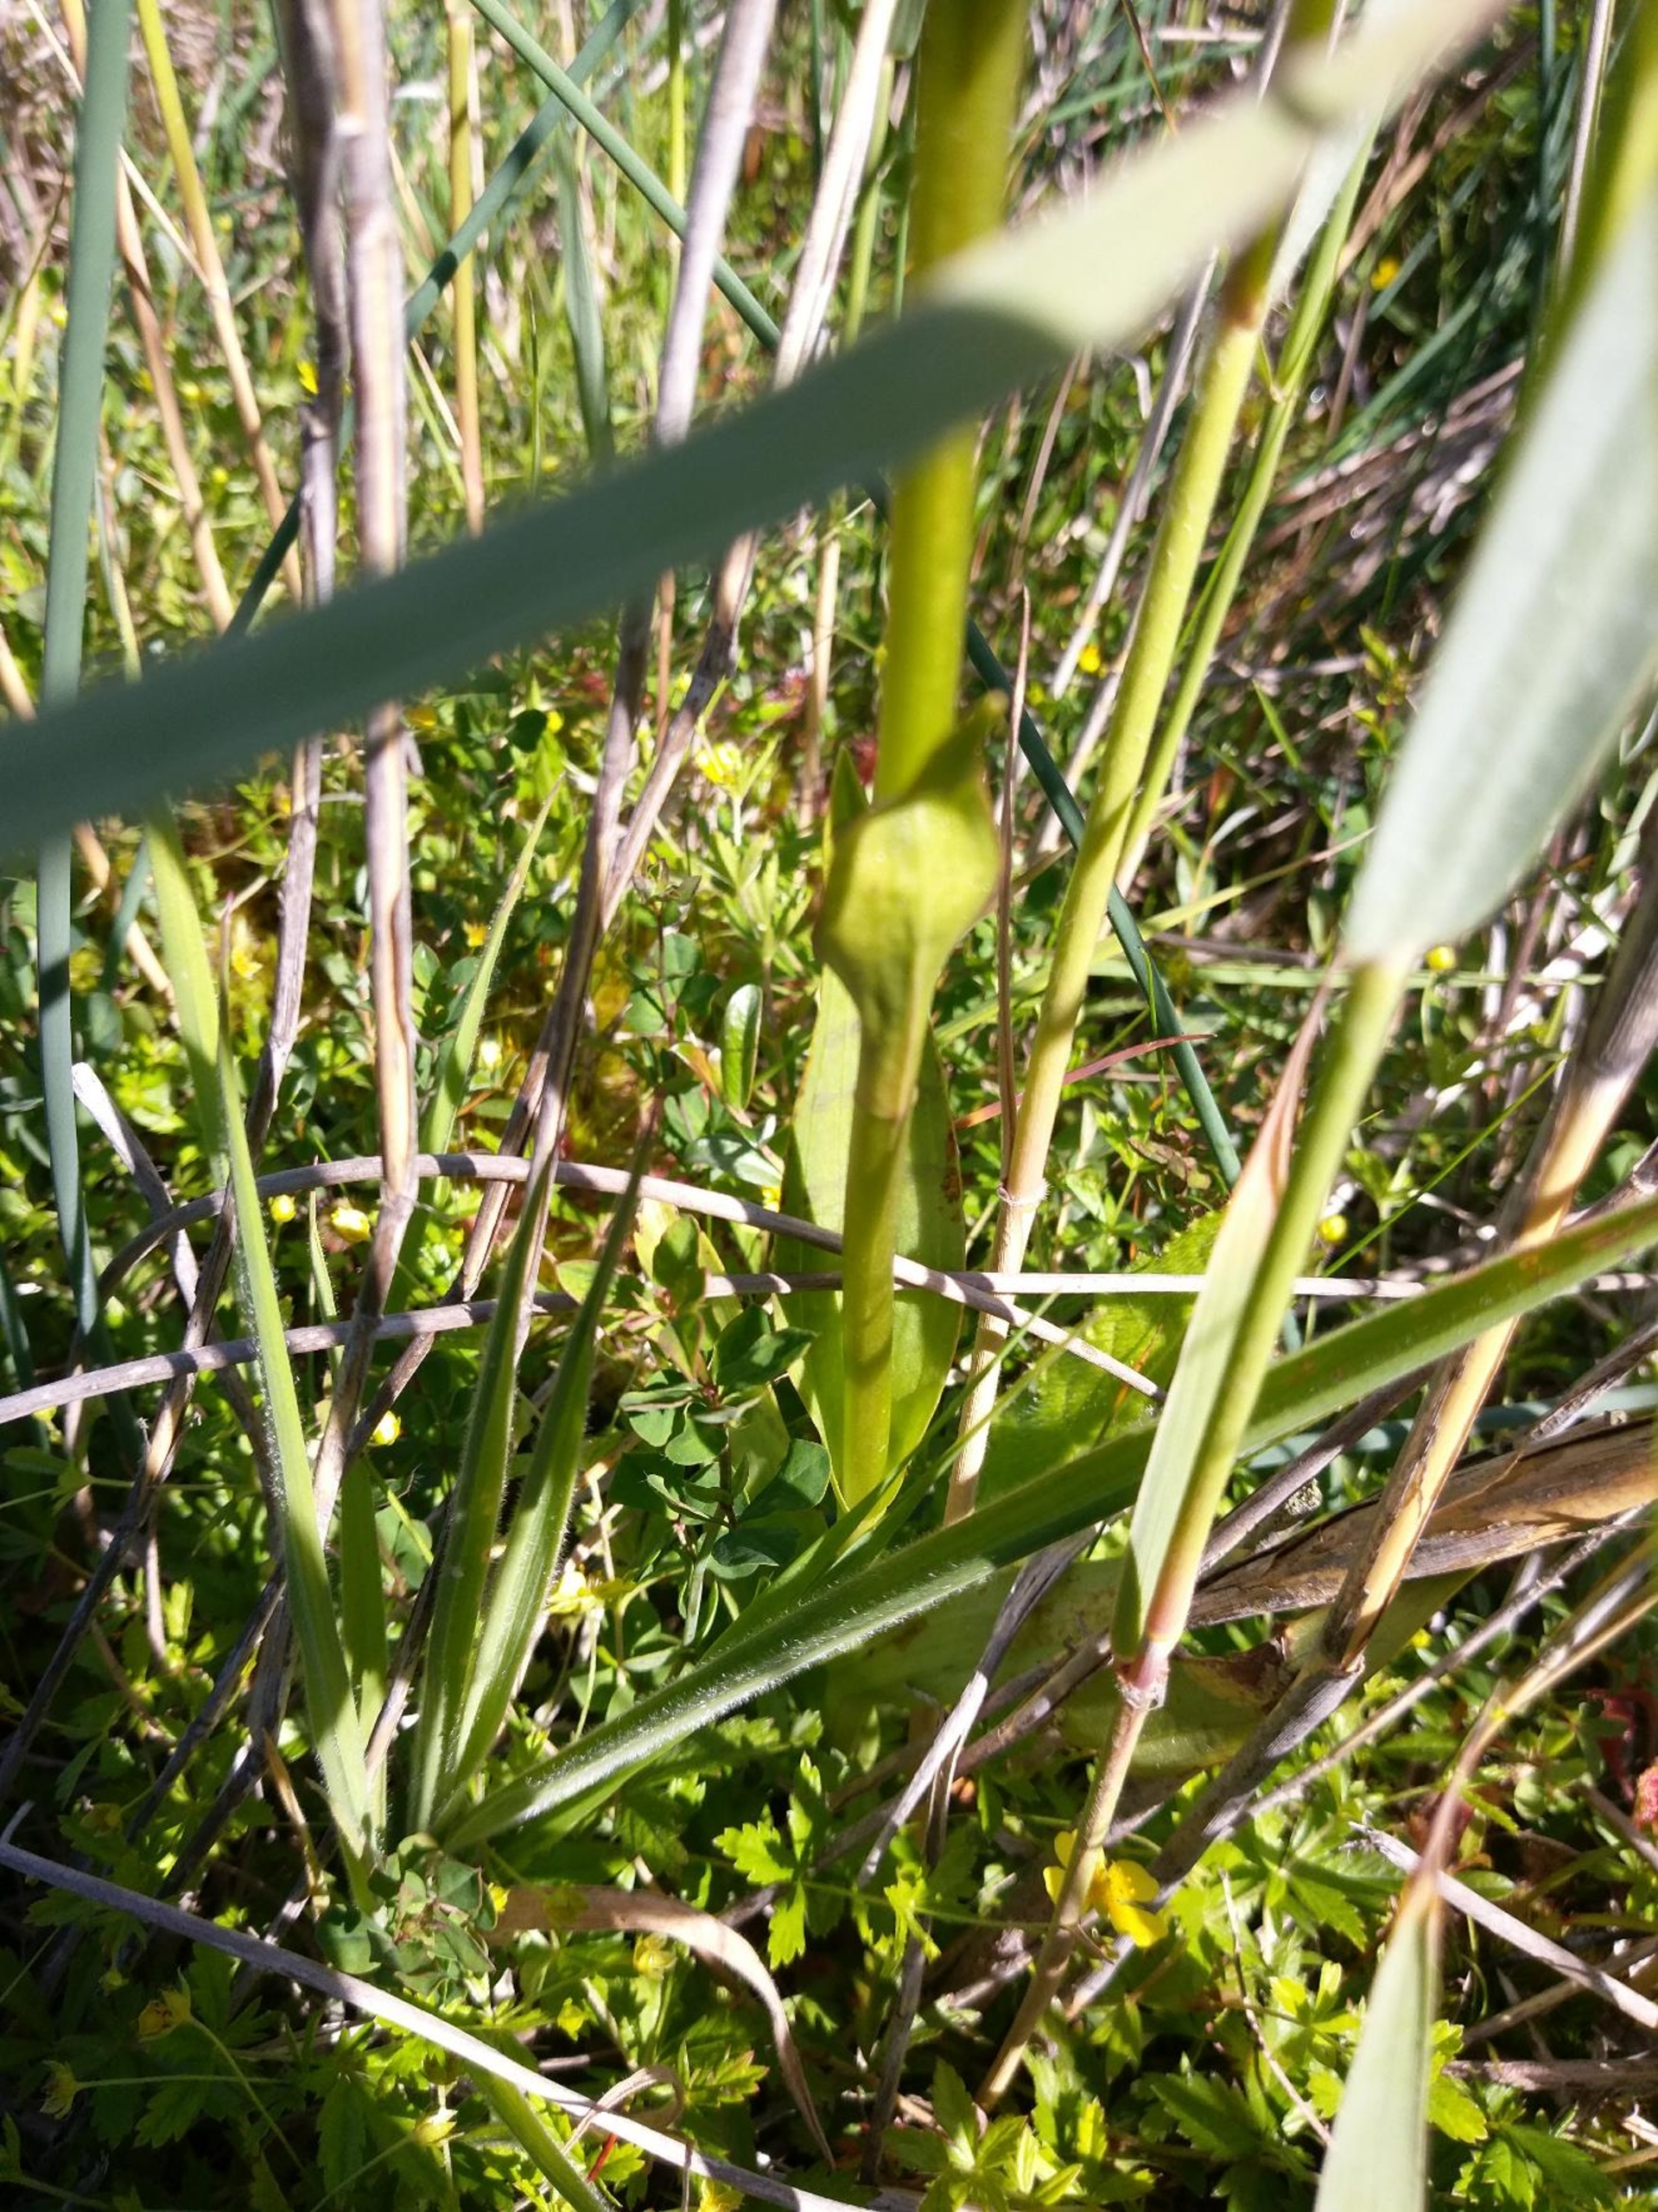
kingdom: Plantae
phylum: Tracheophyta
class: Liliopsida
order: Asparagales
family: Orchidaceae
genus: Dactylorhiza
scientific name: Dactylorhiza majalis
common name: Maj-gøgeurt
